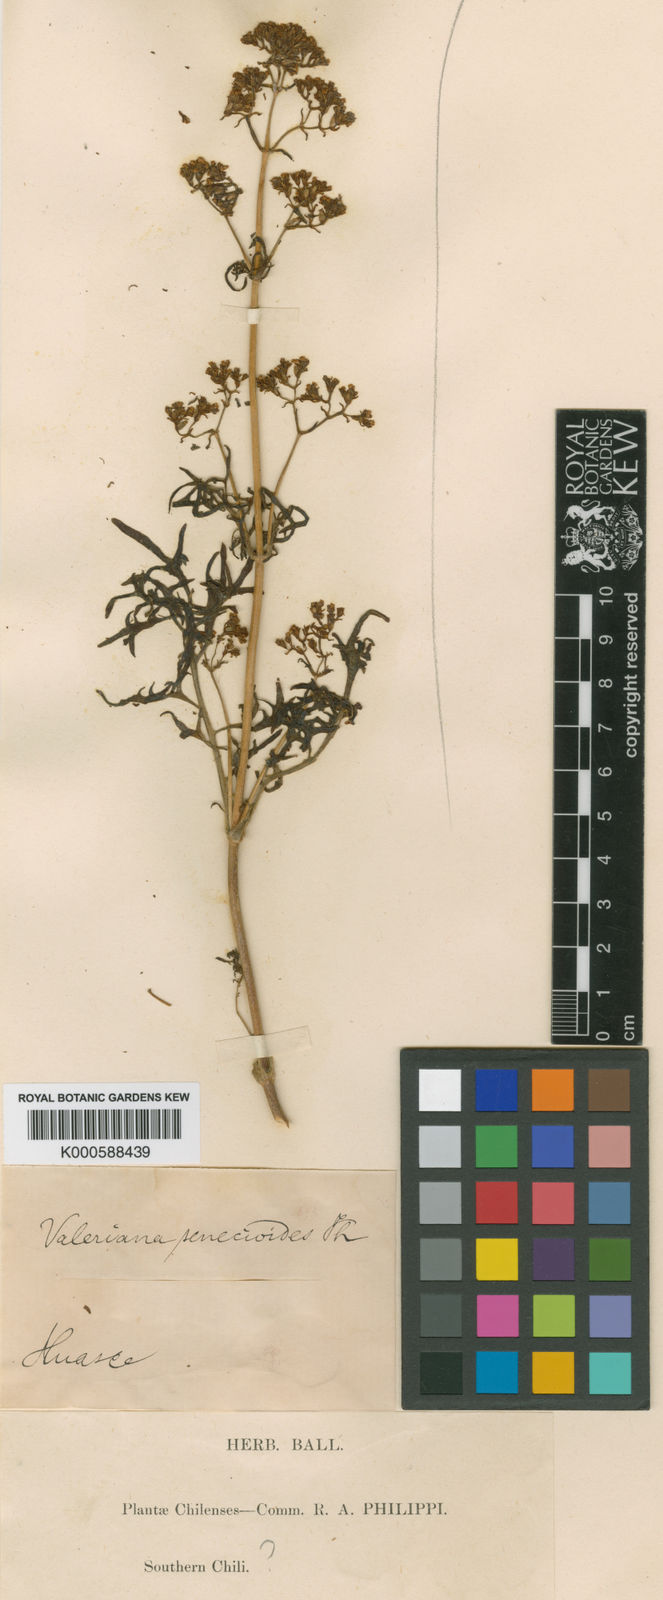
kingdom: Plantae
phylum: Tracheophyta
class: Magnoliopsida
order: Dipsacales
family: Caprifoliaceae
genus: Valeriana
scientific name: Valeriana senecioides
